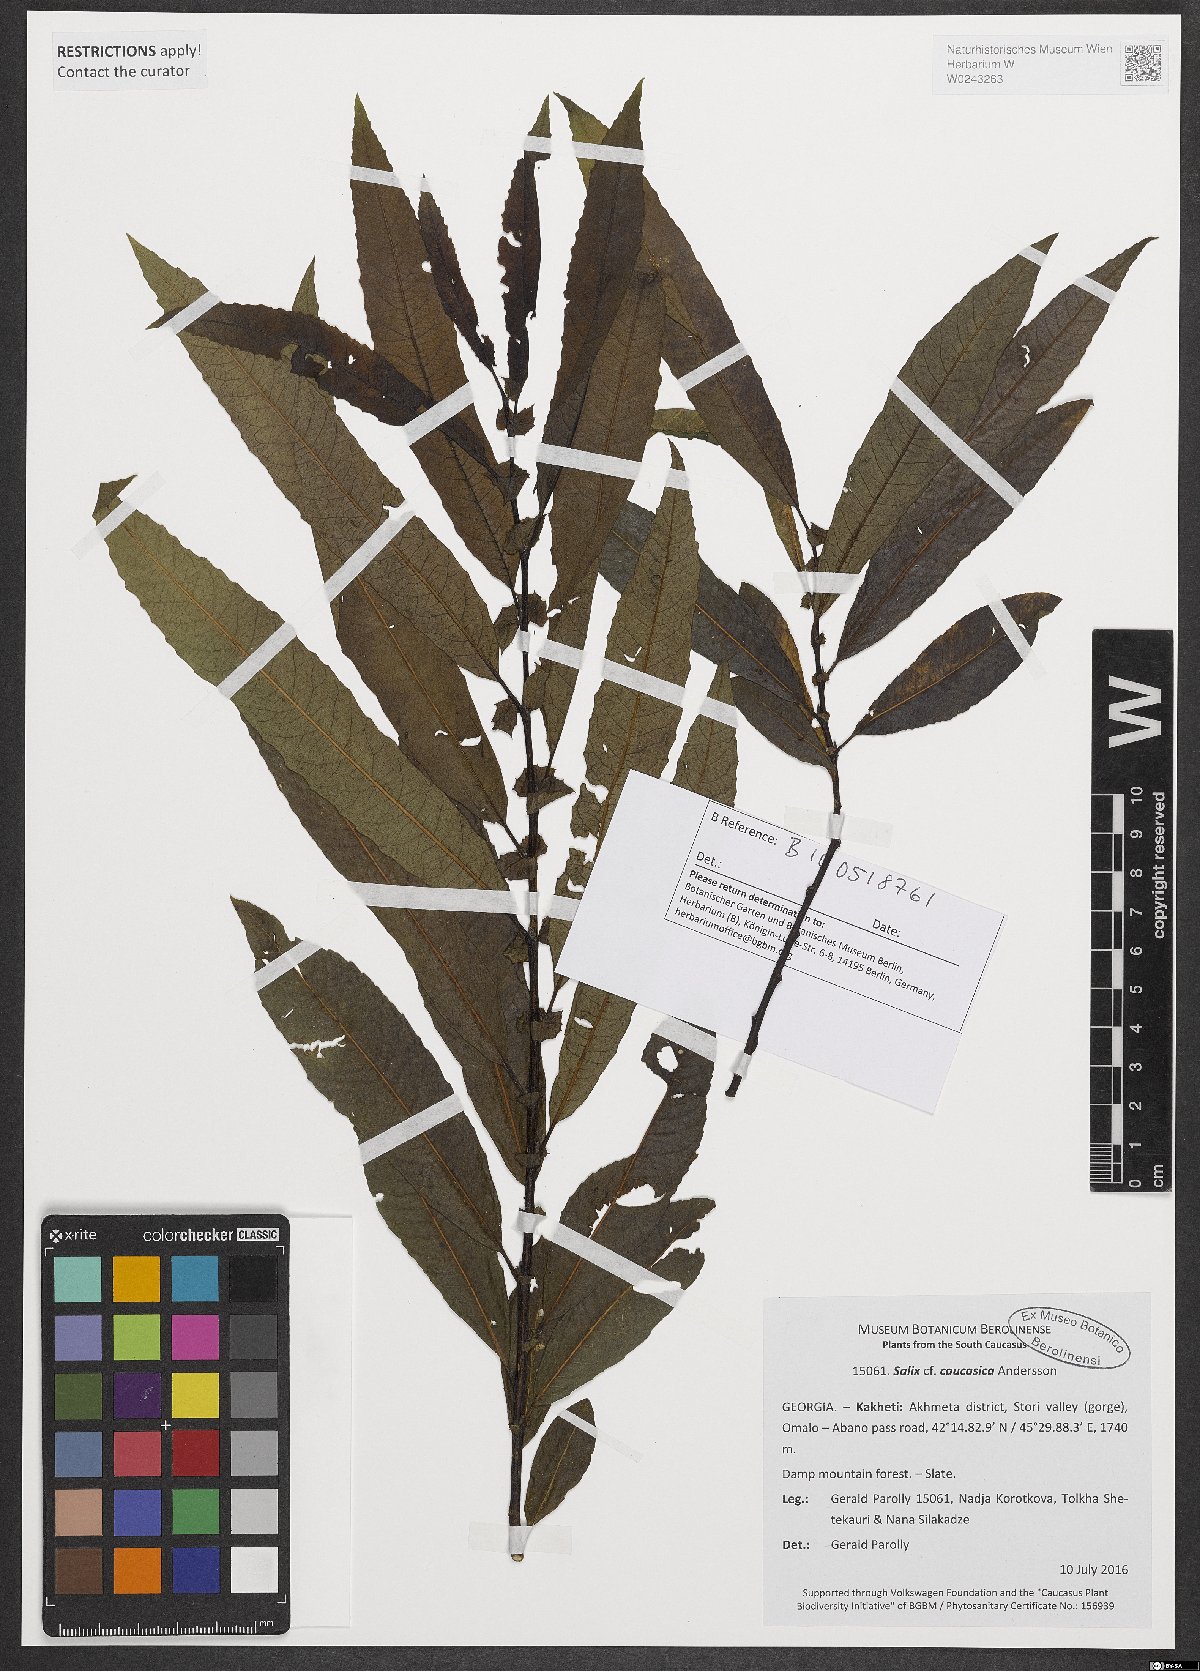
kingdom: Plantae
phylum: Tracheophyta
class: Magnoliopsida
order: Malpighiales
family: Salicaceae
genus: Salix
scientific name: Salix caucasica
